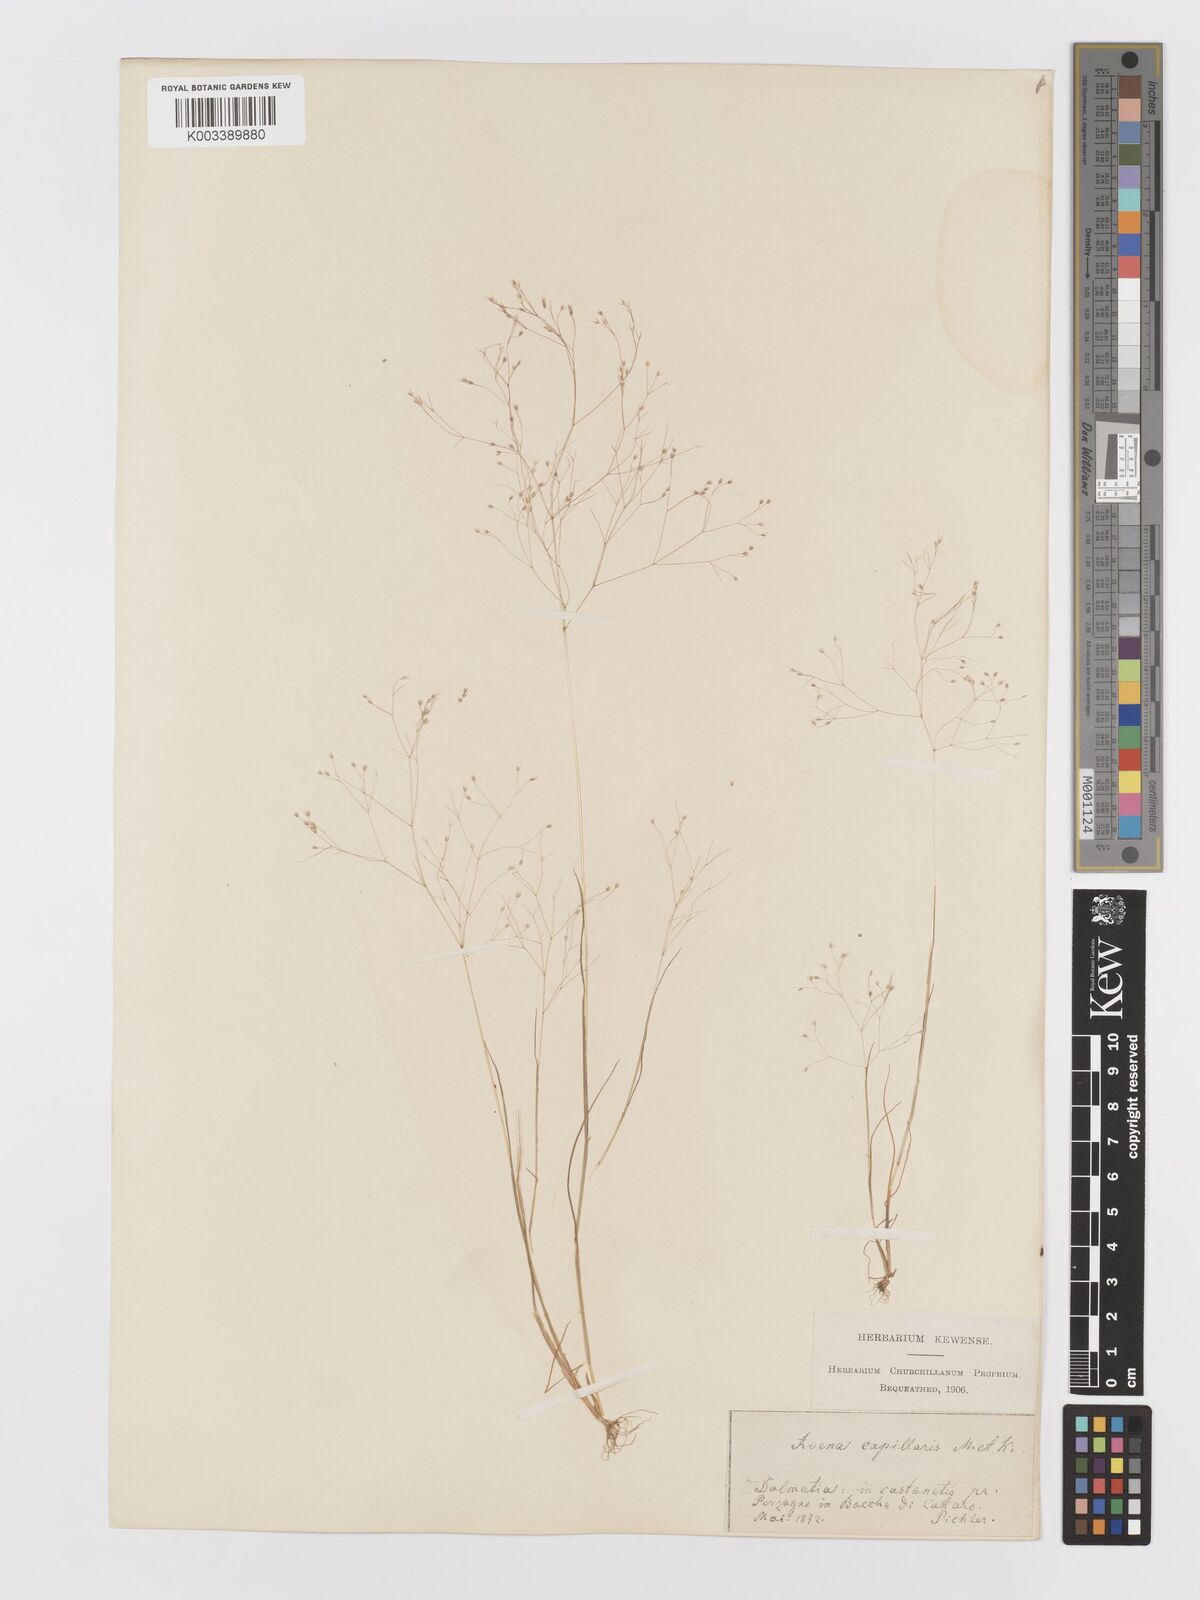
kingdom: Plantae
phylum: Tracheophyta
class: Liliopsida
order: Poales
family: Poaceae
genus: Aira
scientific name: Aira elegans
